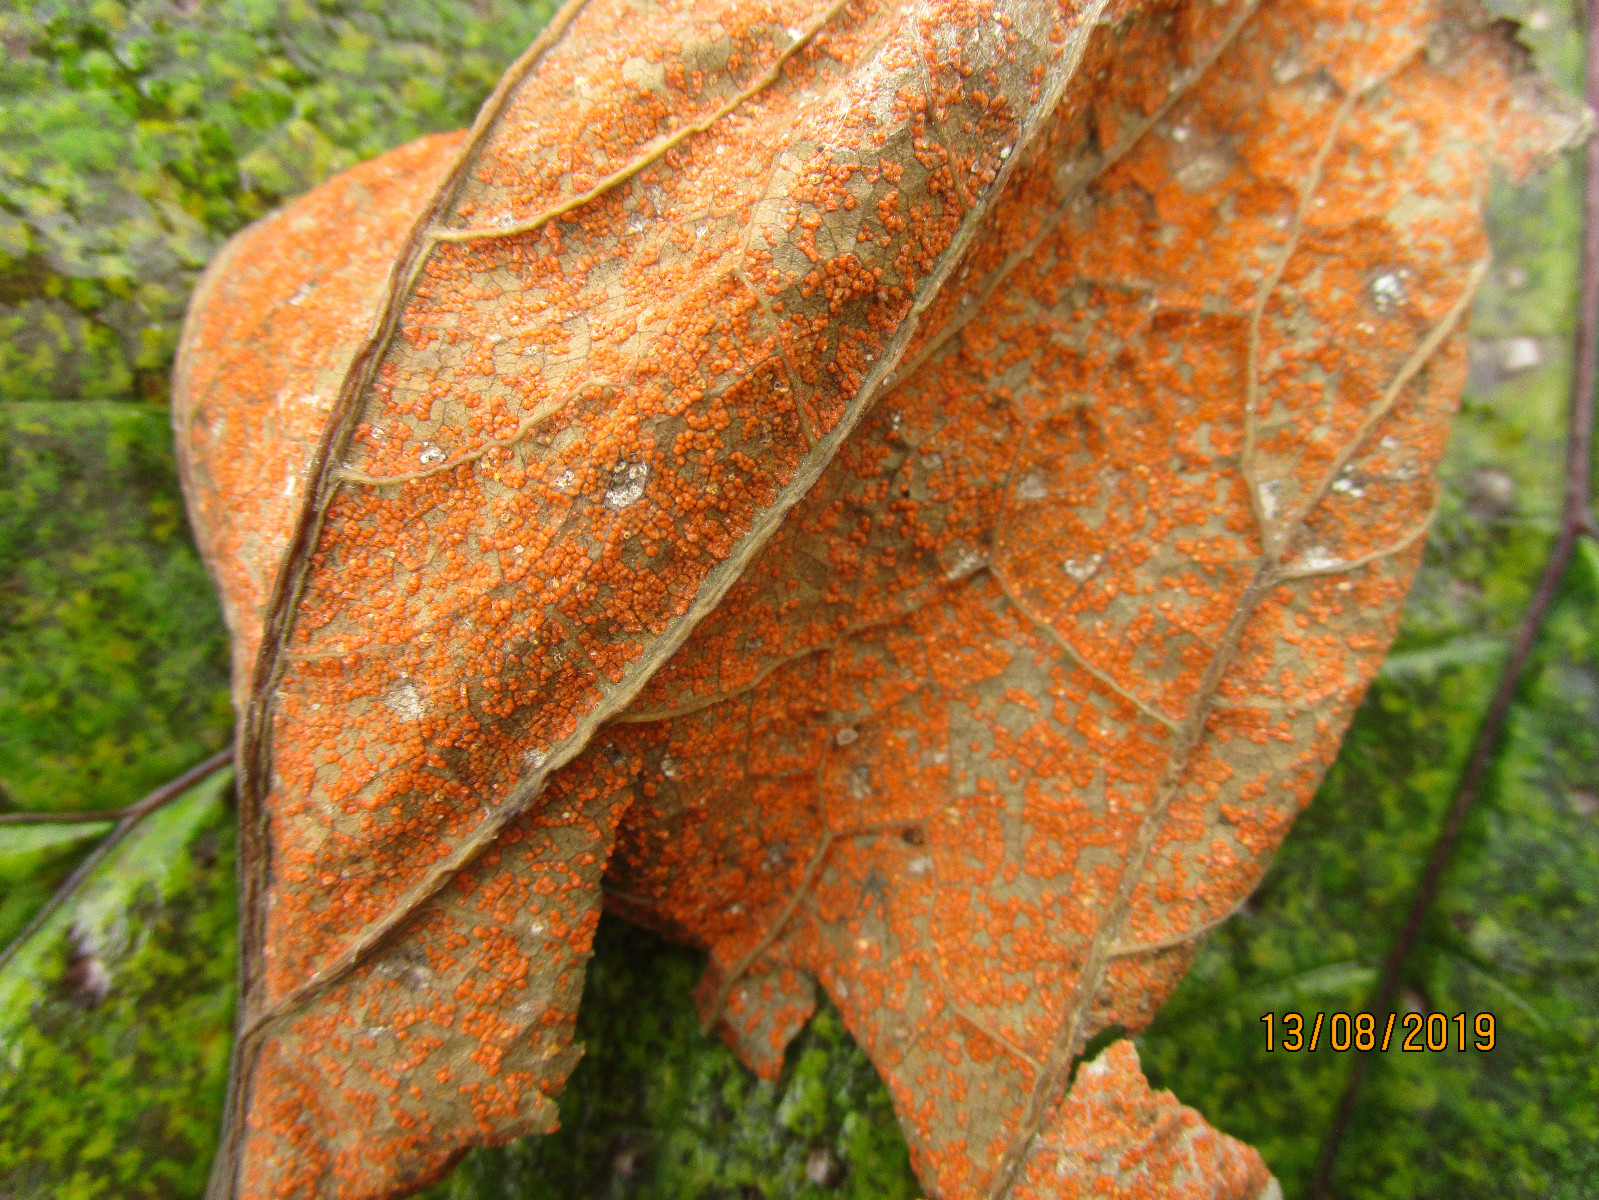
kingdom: Fungi
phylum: Basidiomycota
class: Pucciniomycetes
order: Pucciniales
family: Coleosporiaceae
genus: Coleosporium
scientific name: Coleosporium tussilaginis
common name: almindelig fyrrenålerust
